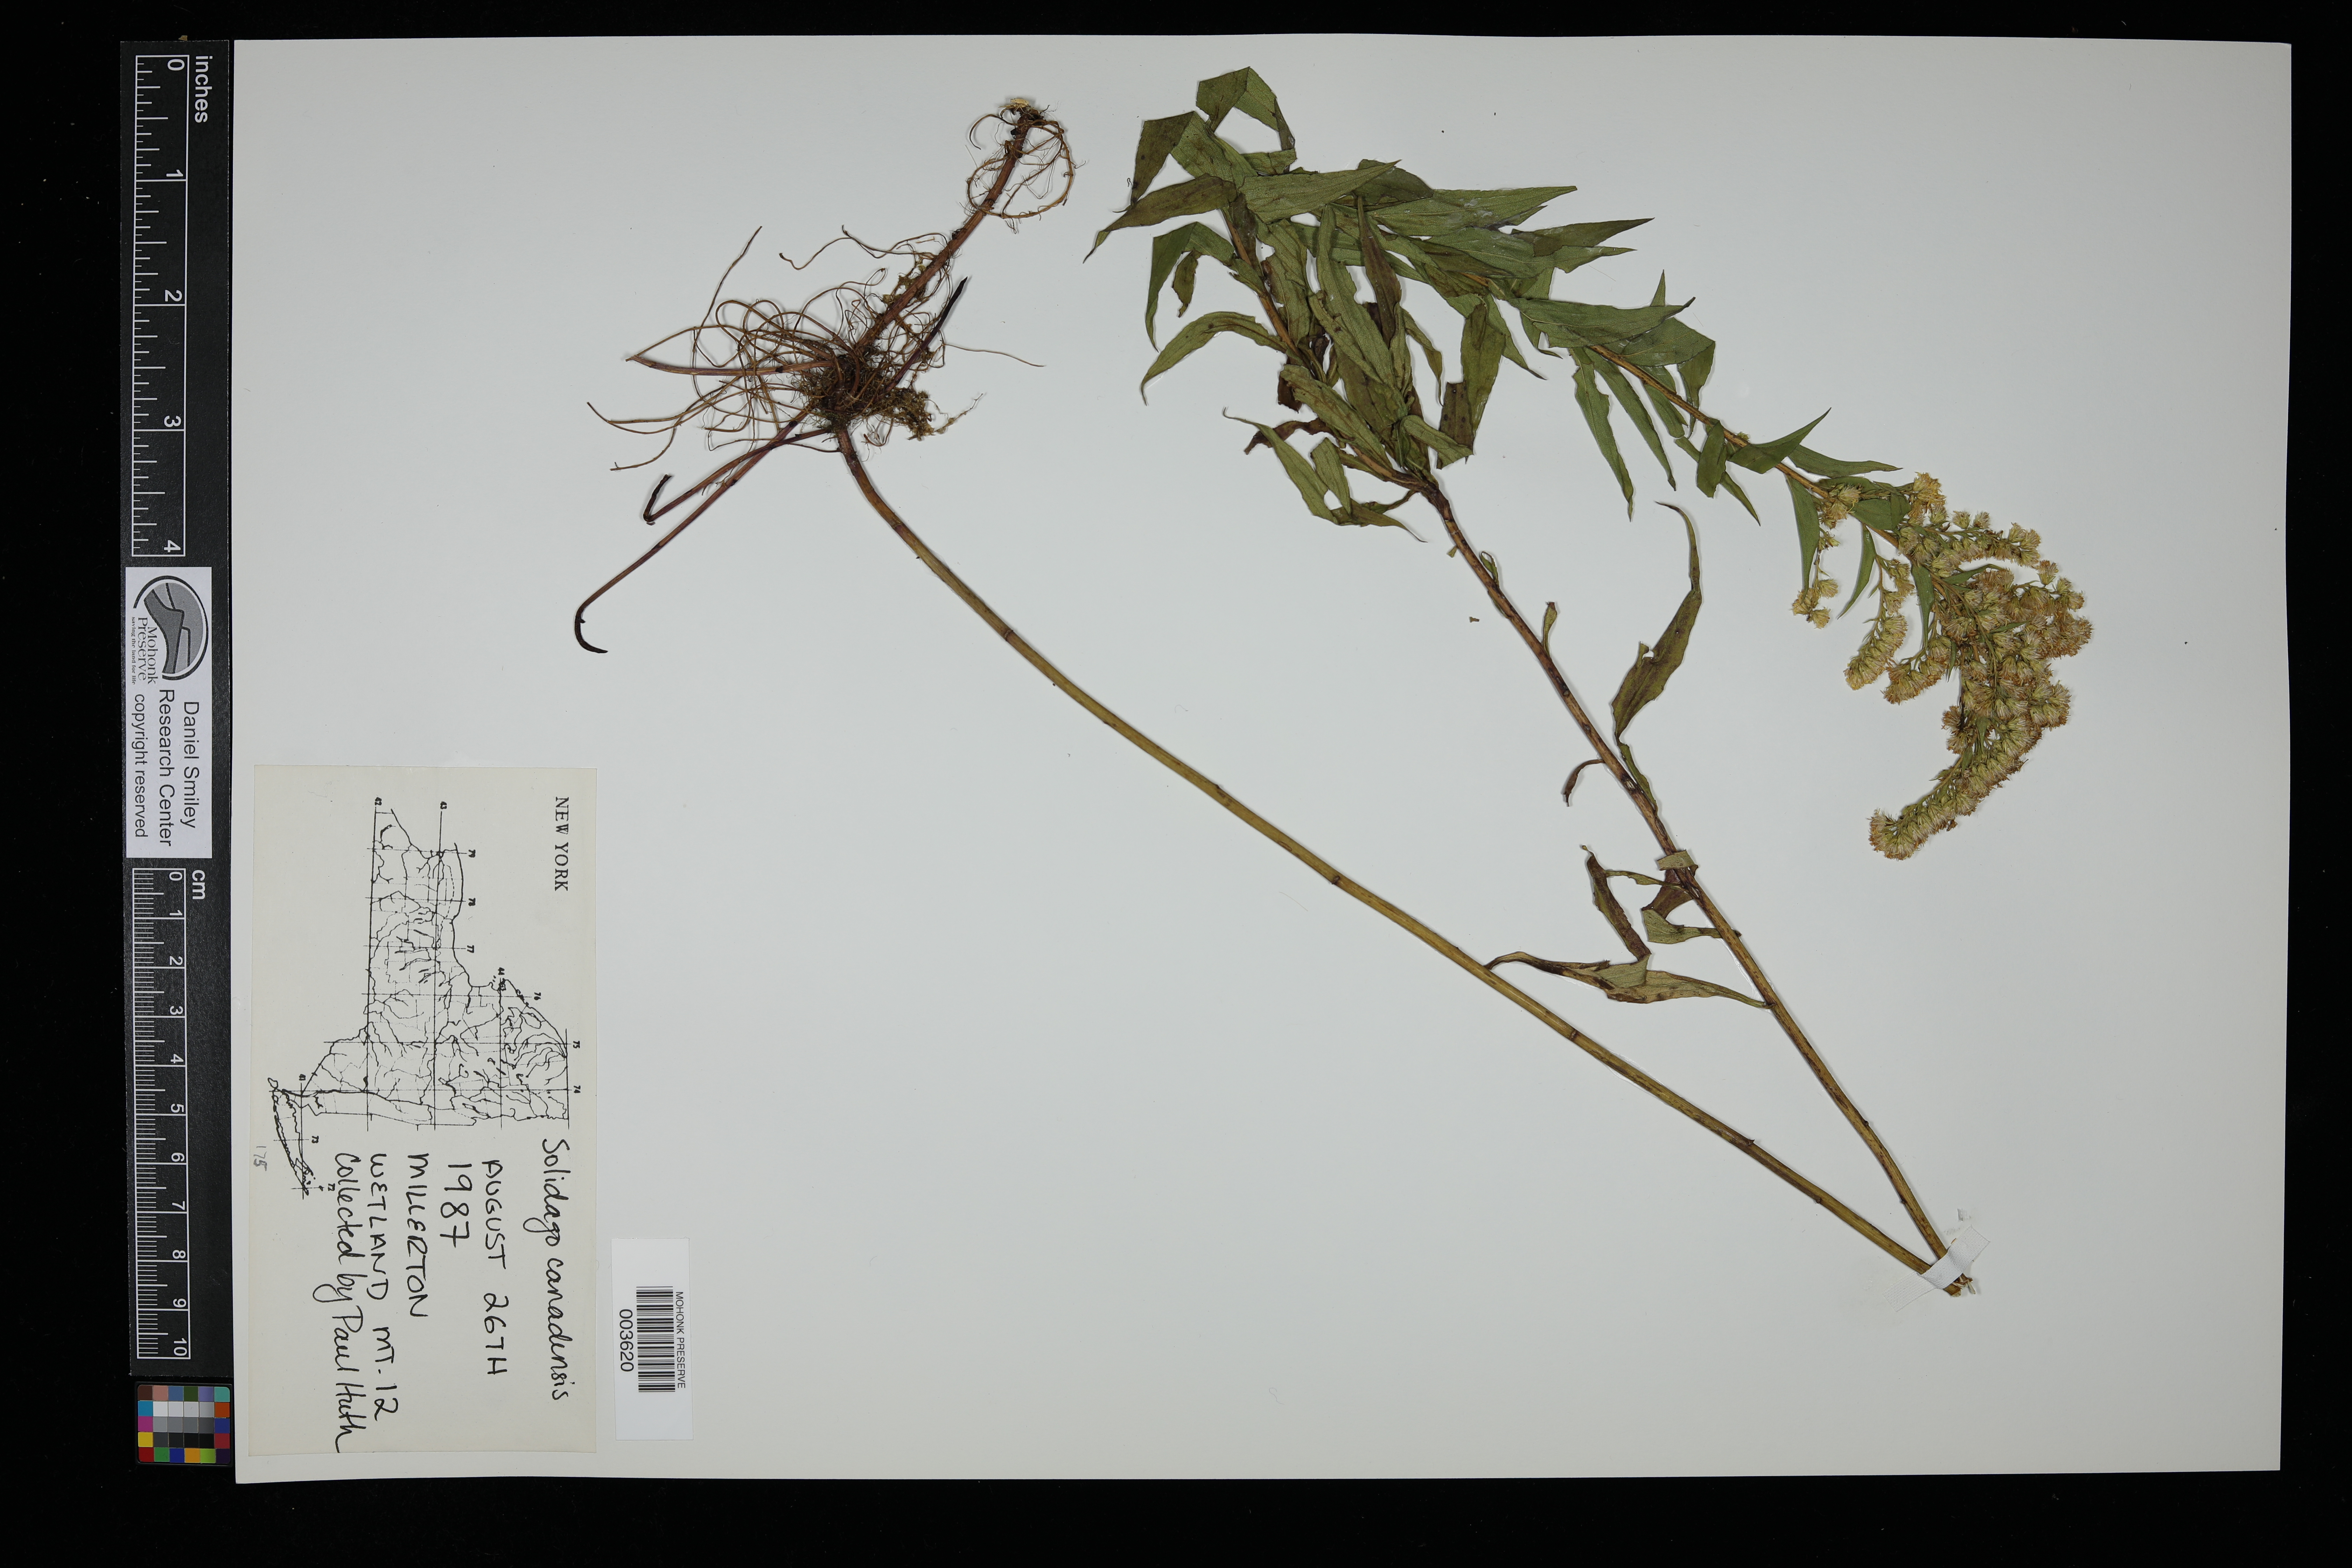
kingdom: Plantae
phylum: Tracheophyta
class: Magnoliopsida
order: Asterales
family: Asteraceae
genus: Solidago
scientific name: Solidago canadensis
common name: Canada goldenrod
